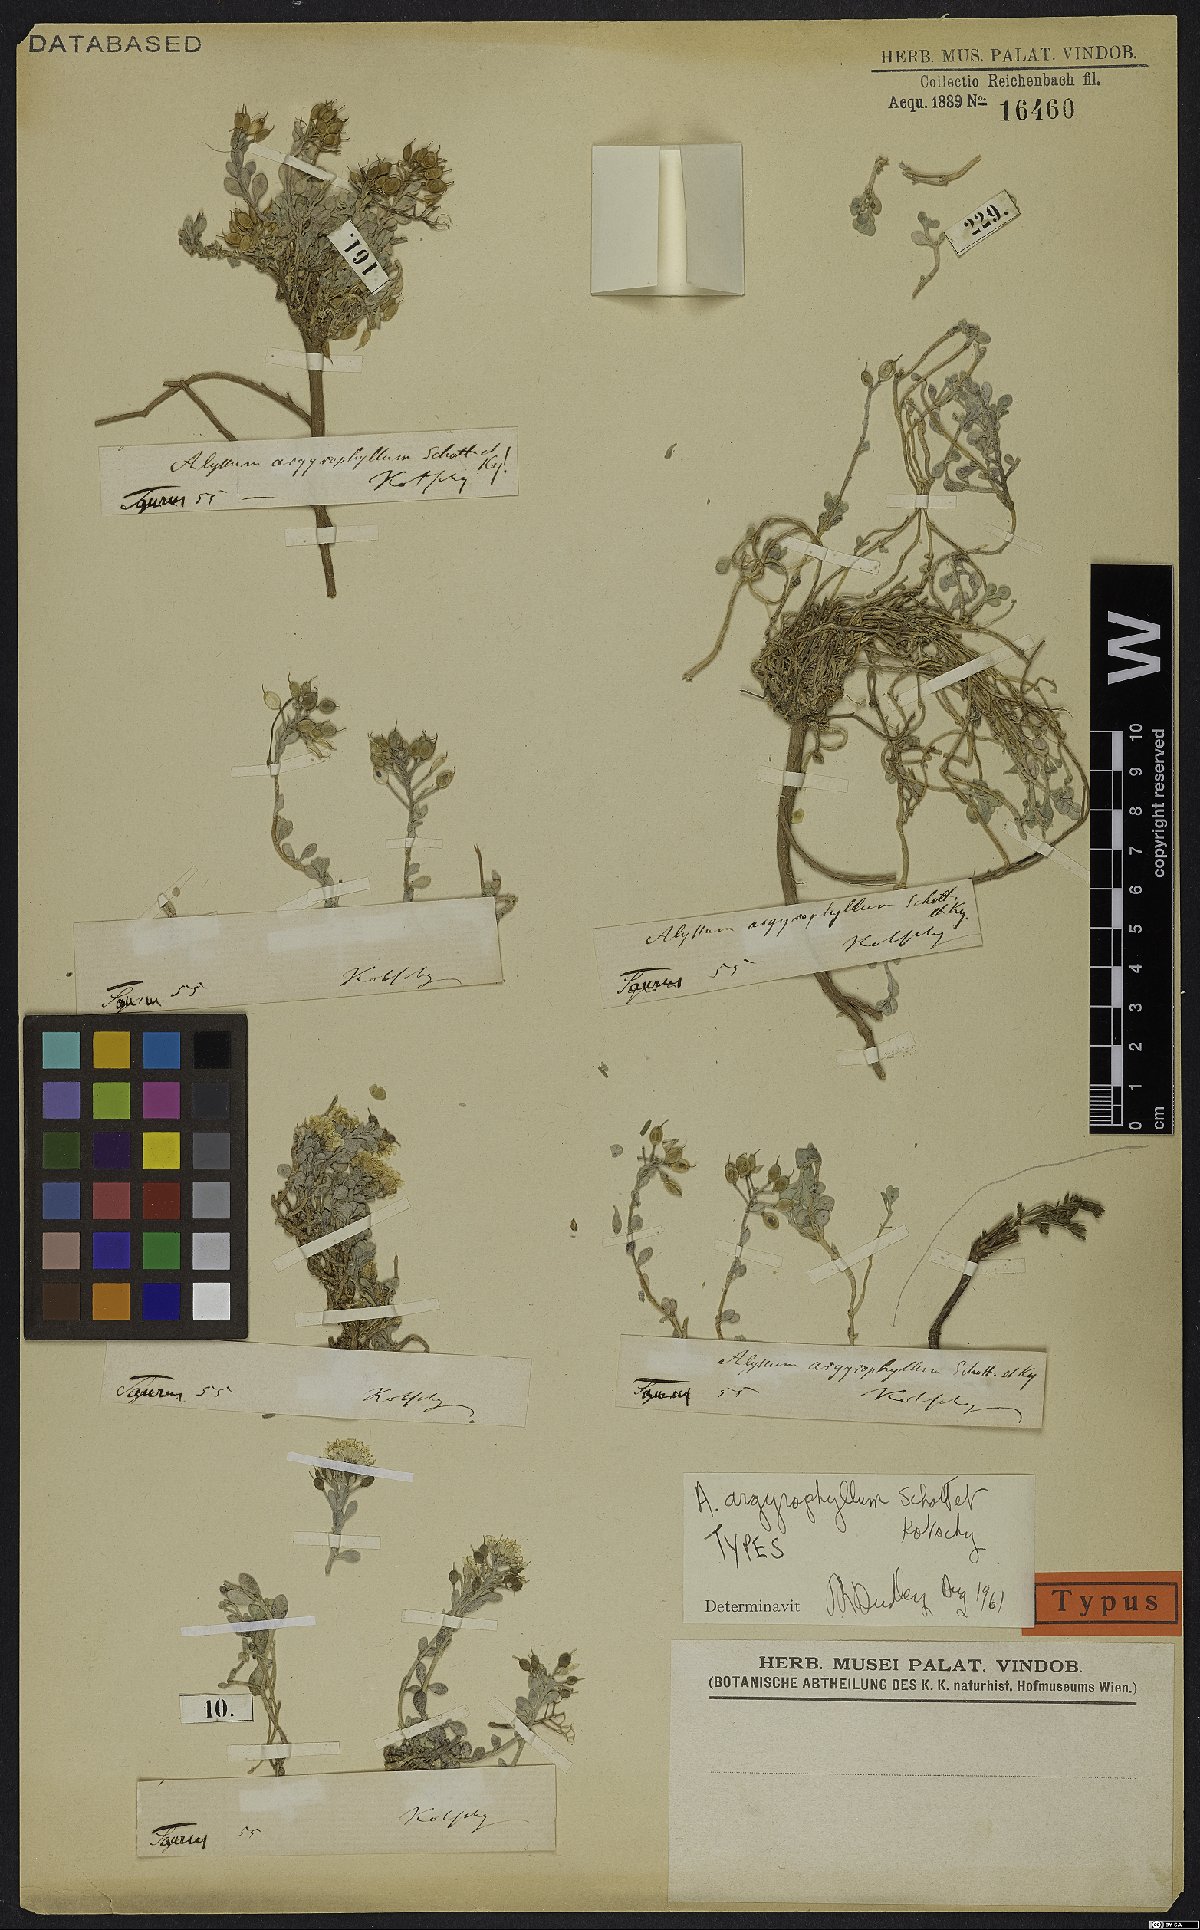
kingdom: Plantae
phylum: Tracheophyta
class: Magnoliopsida
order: Brassicales
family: Brassicaceae
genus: Alyssum
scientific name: Alyssum argyrophyllum
